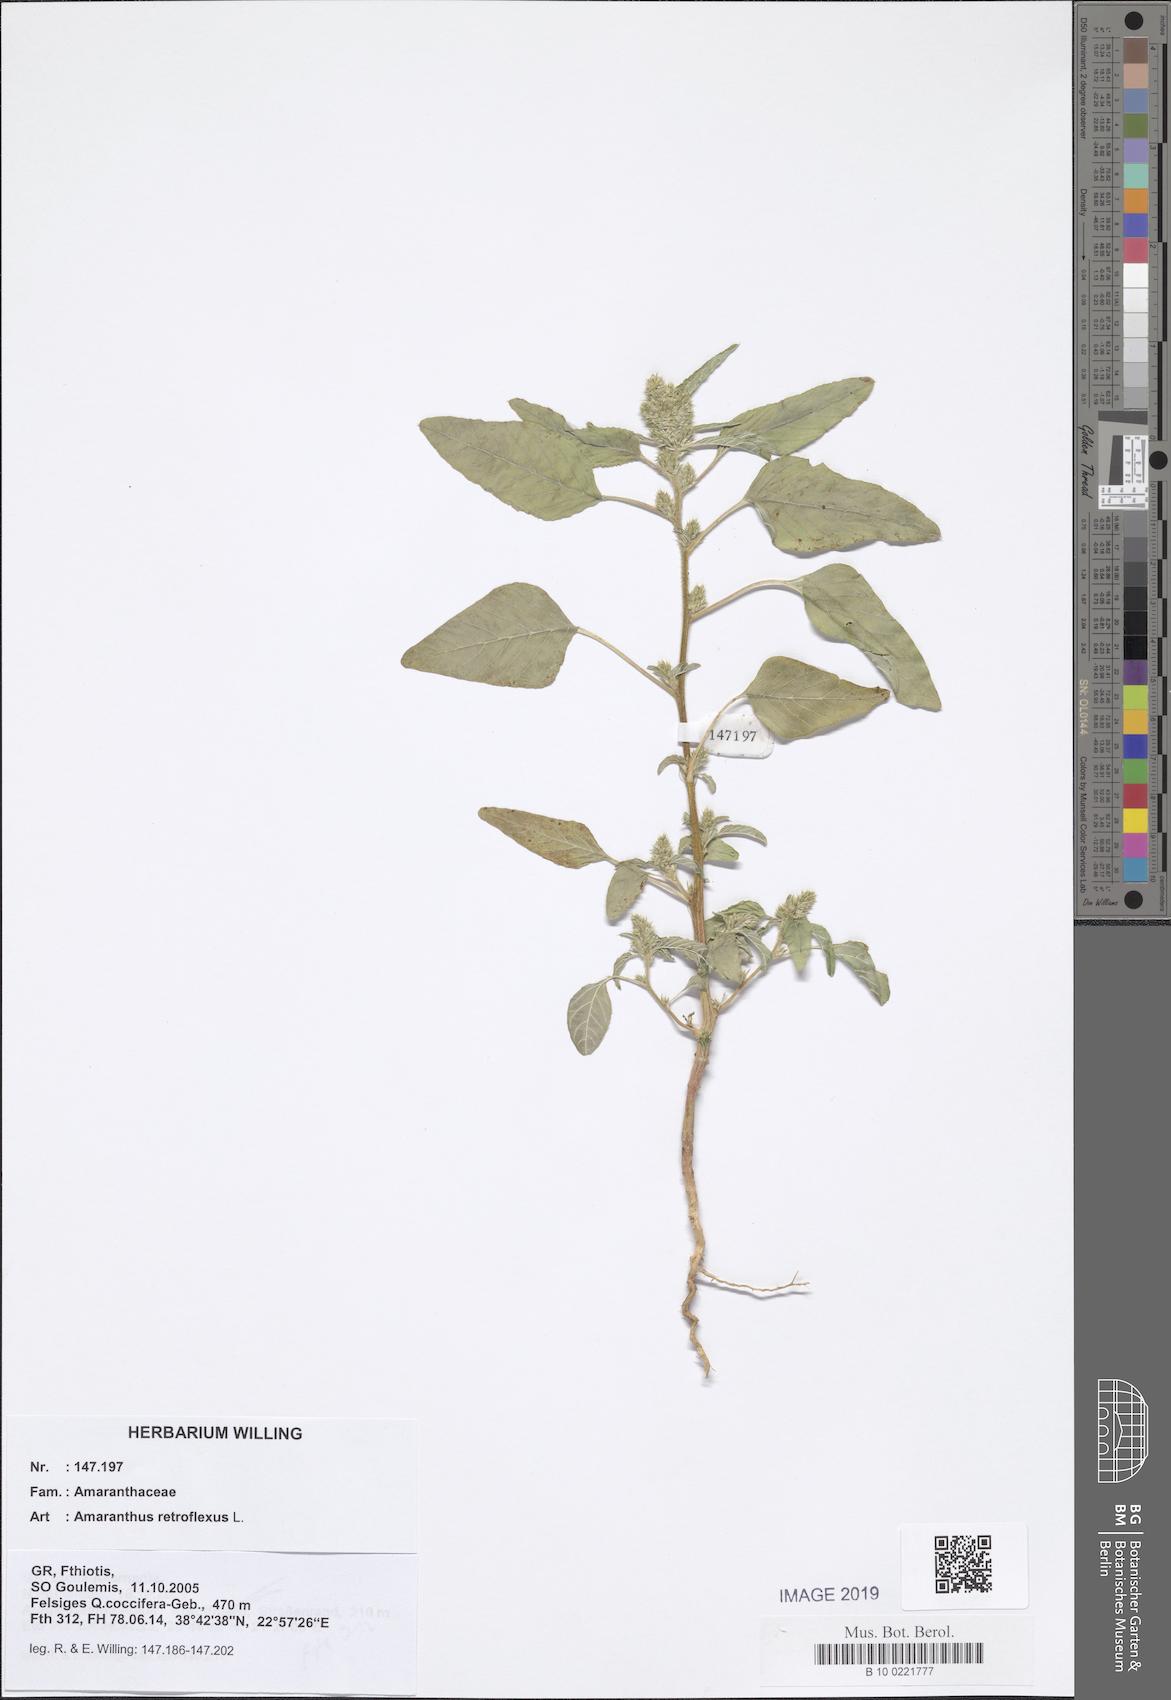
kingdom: Plantae
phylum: Tracheophyta
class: Magnoliopsida
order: Caryophyllales
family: Amaranthaceae
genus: Amaranthus
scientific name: Amaranthus retroflexus
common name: Redroot amaranth
